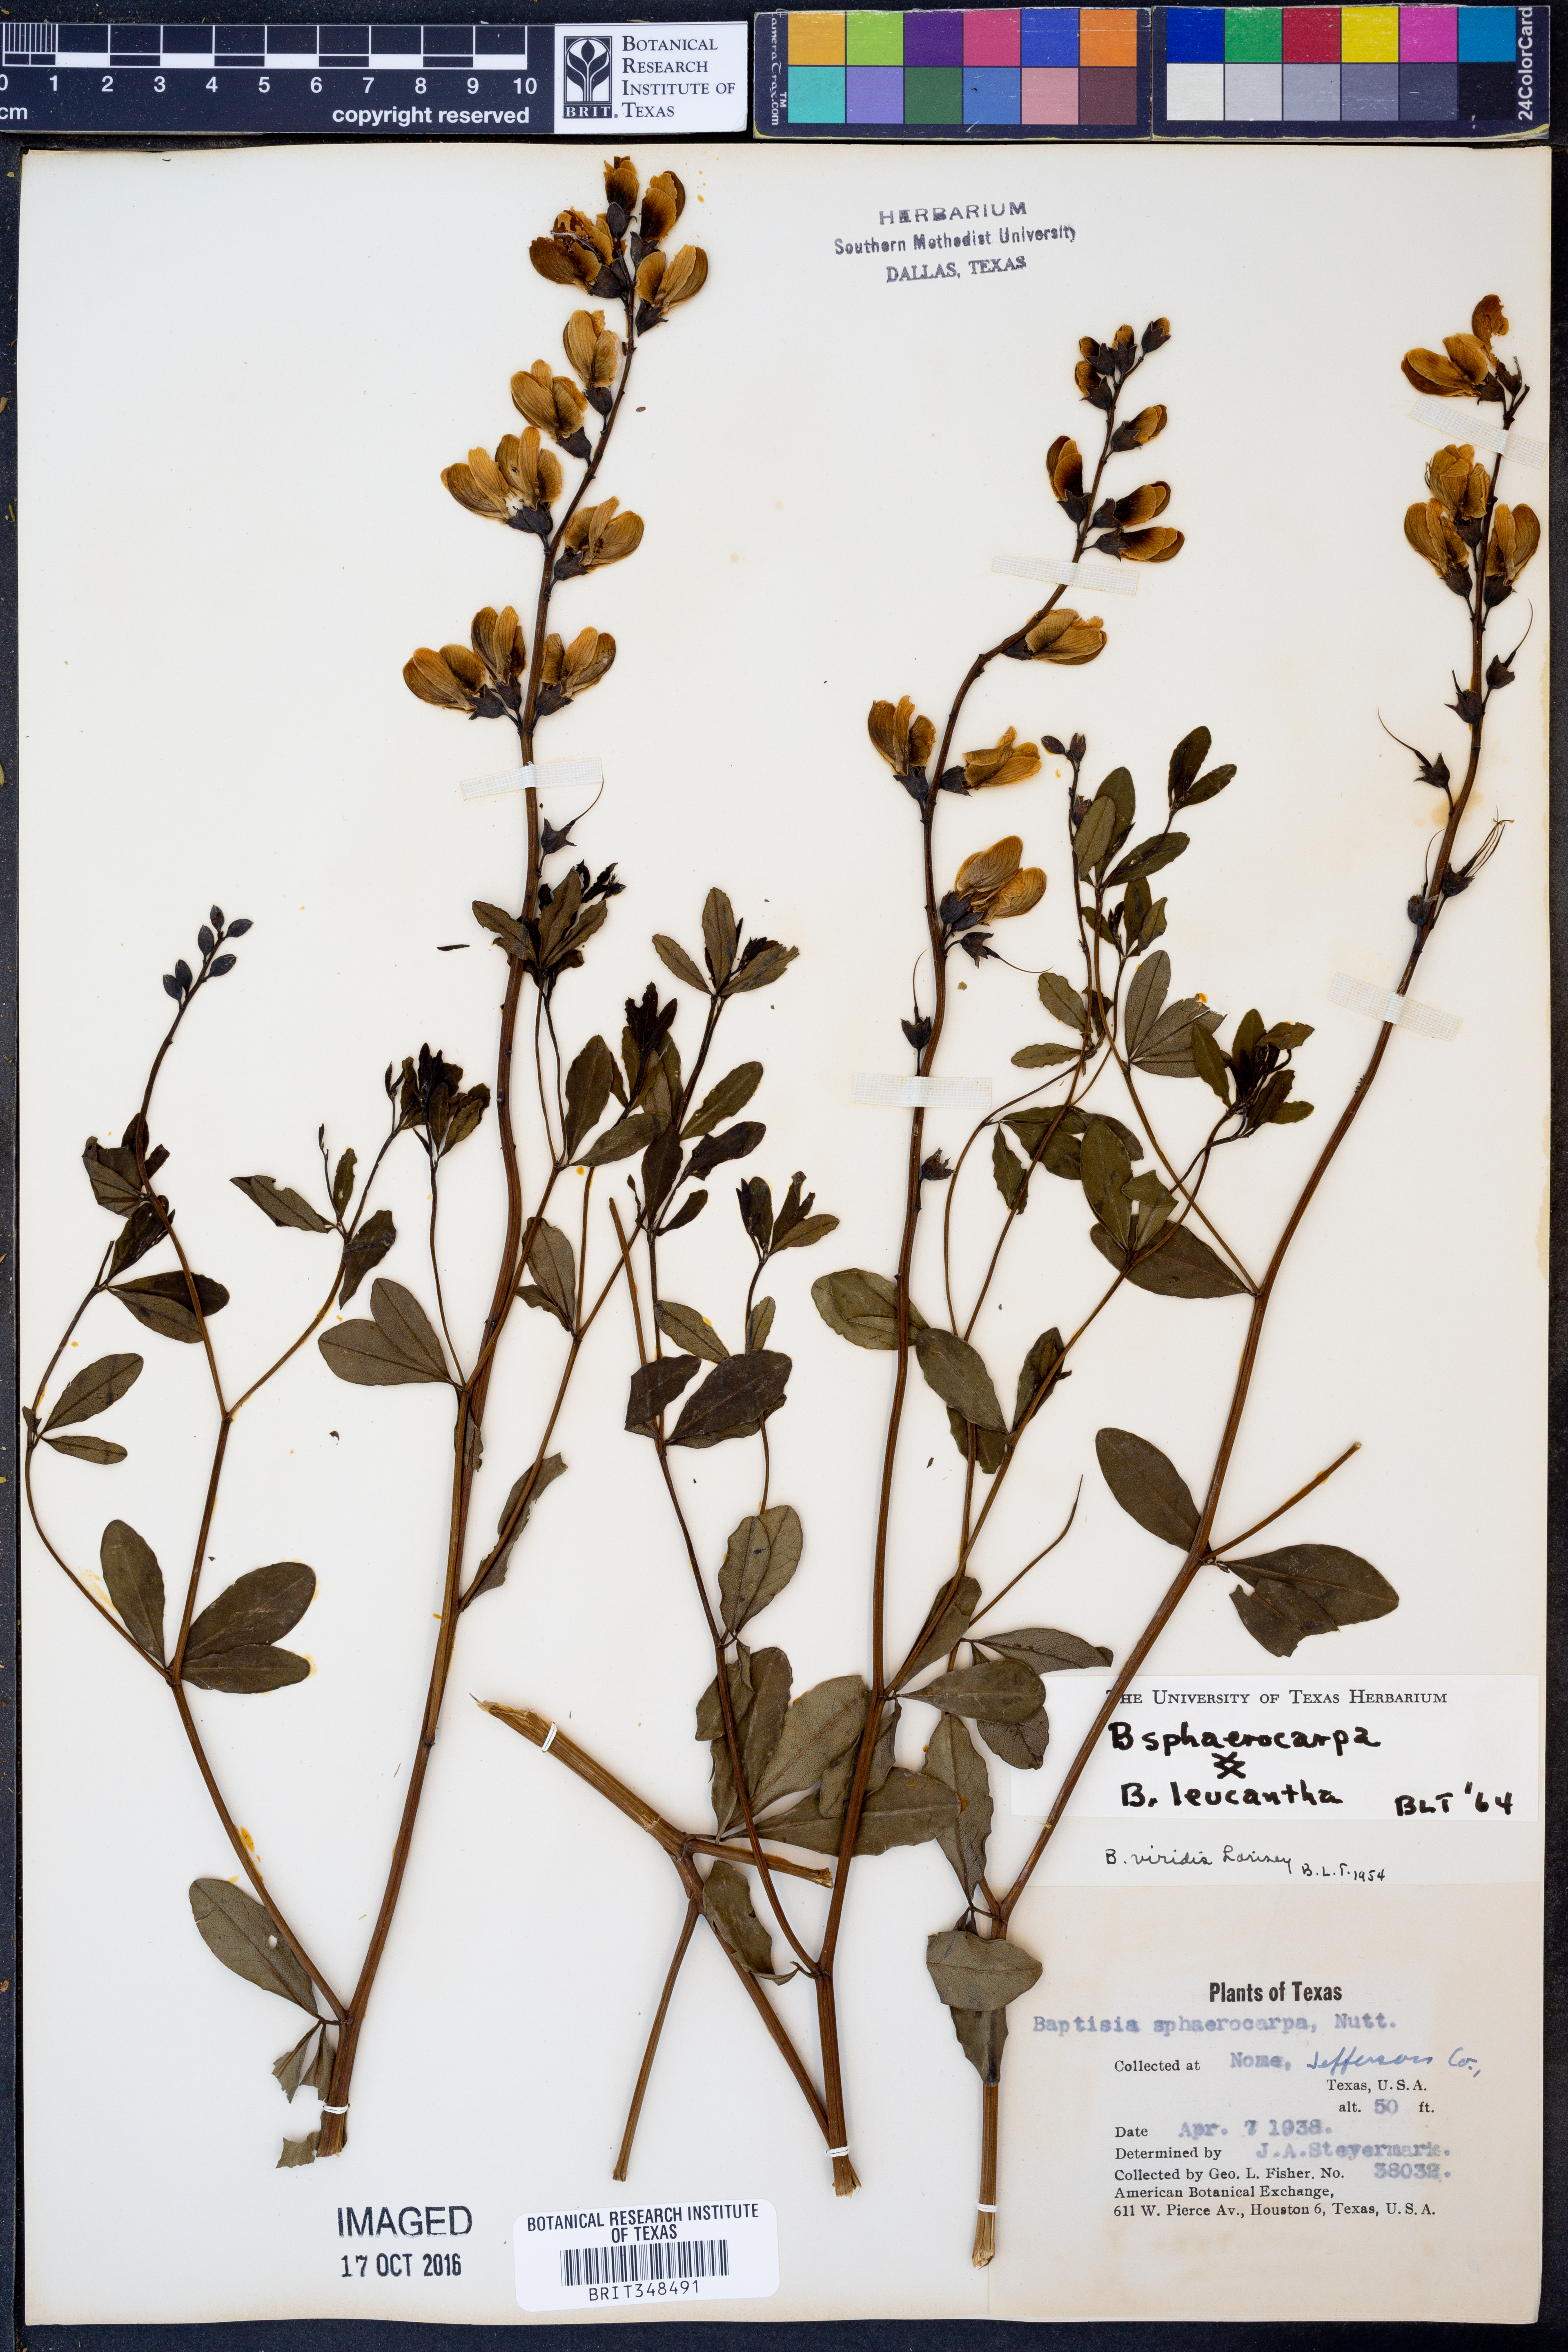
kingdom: Plantae
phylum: Tracheophyta
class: Magnoliopsida
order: Fabales
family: Fabaceae
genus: Baptisia
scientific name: Baptisia sphaerocarpa
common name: Round wild indigo
